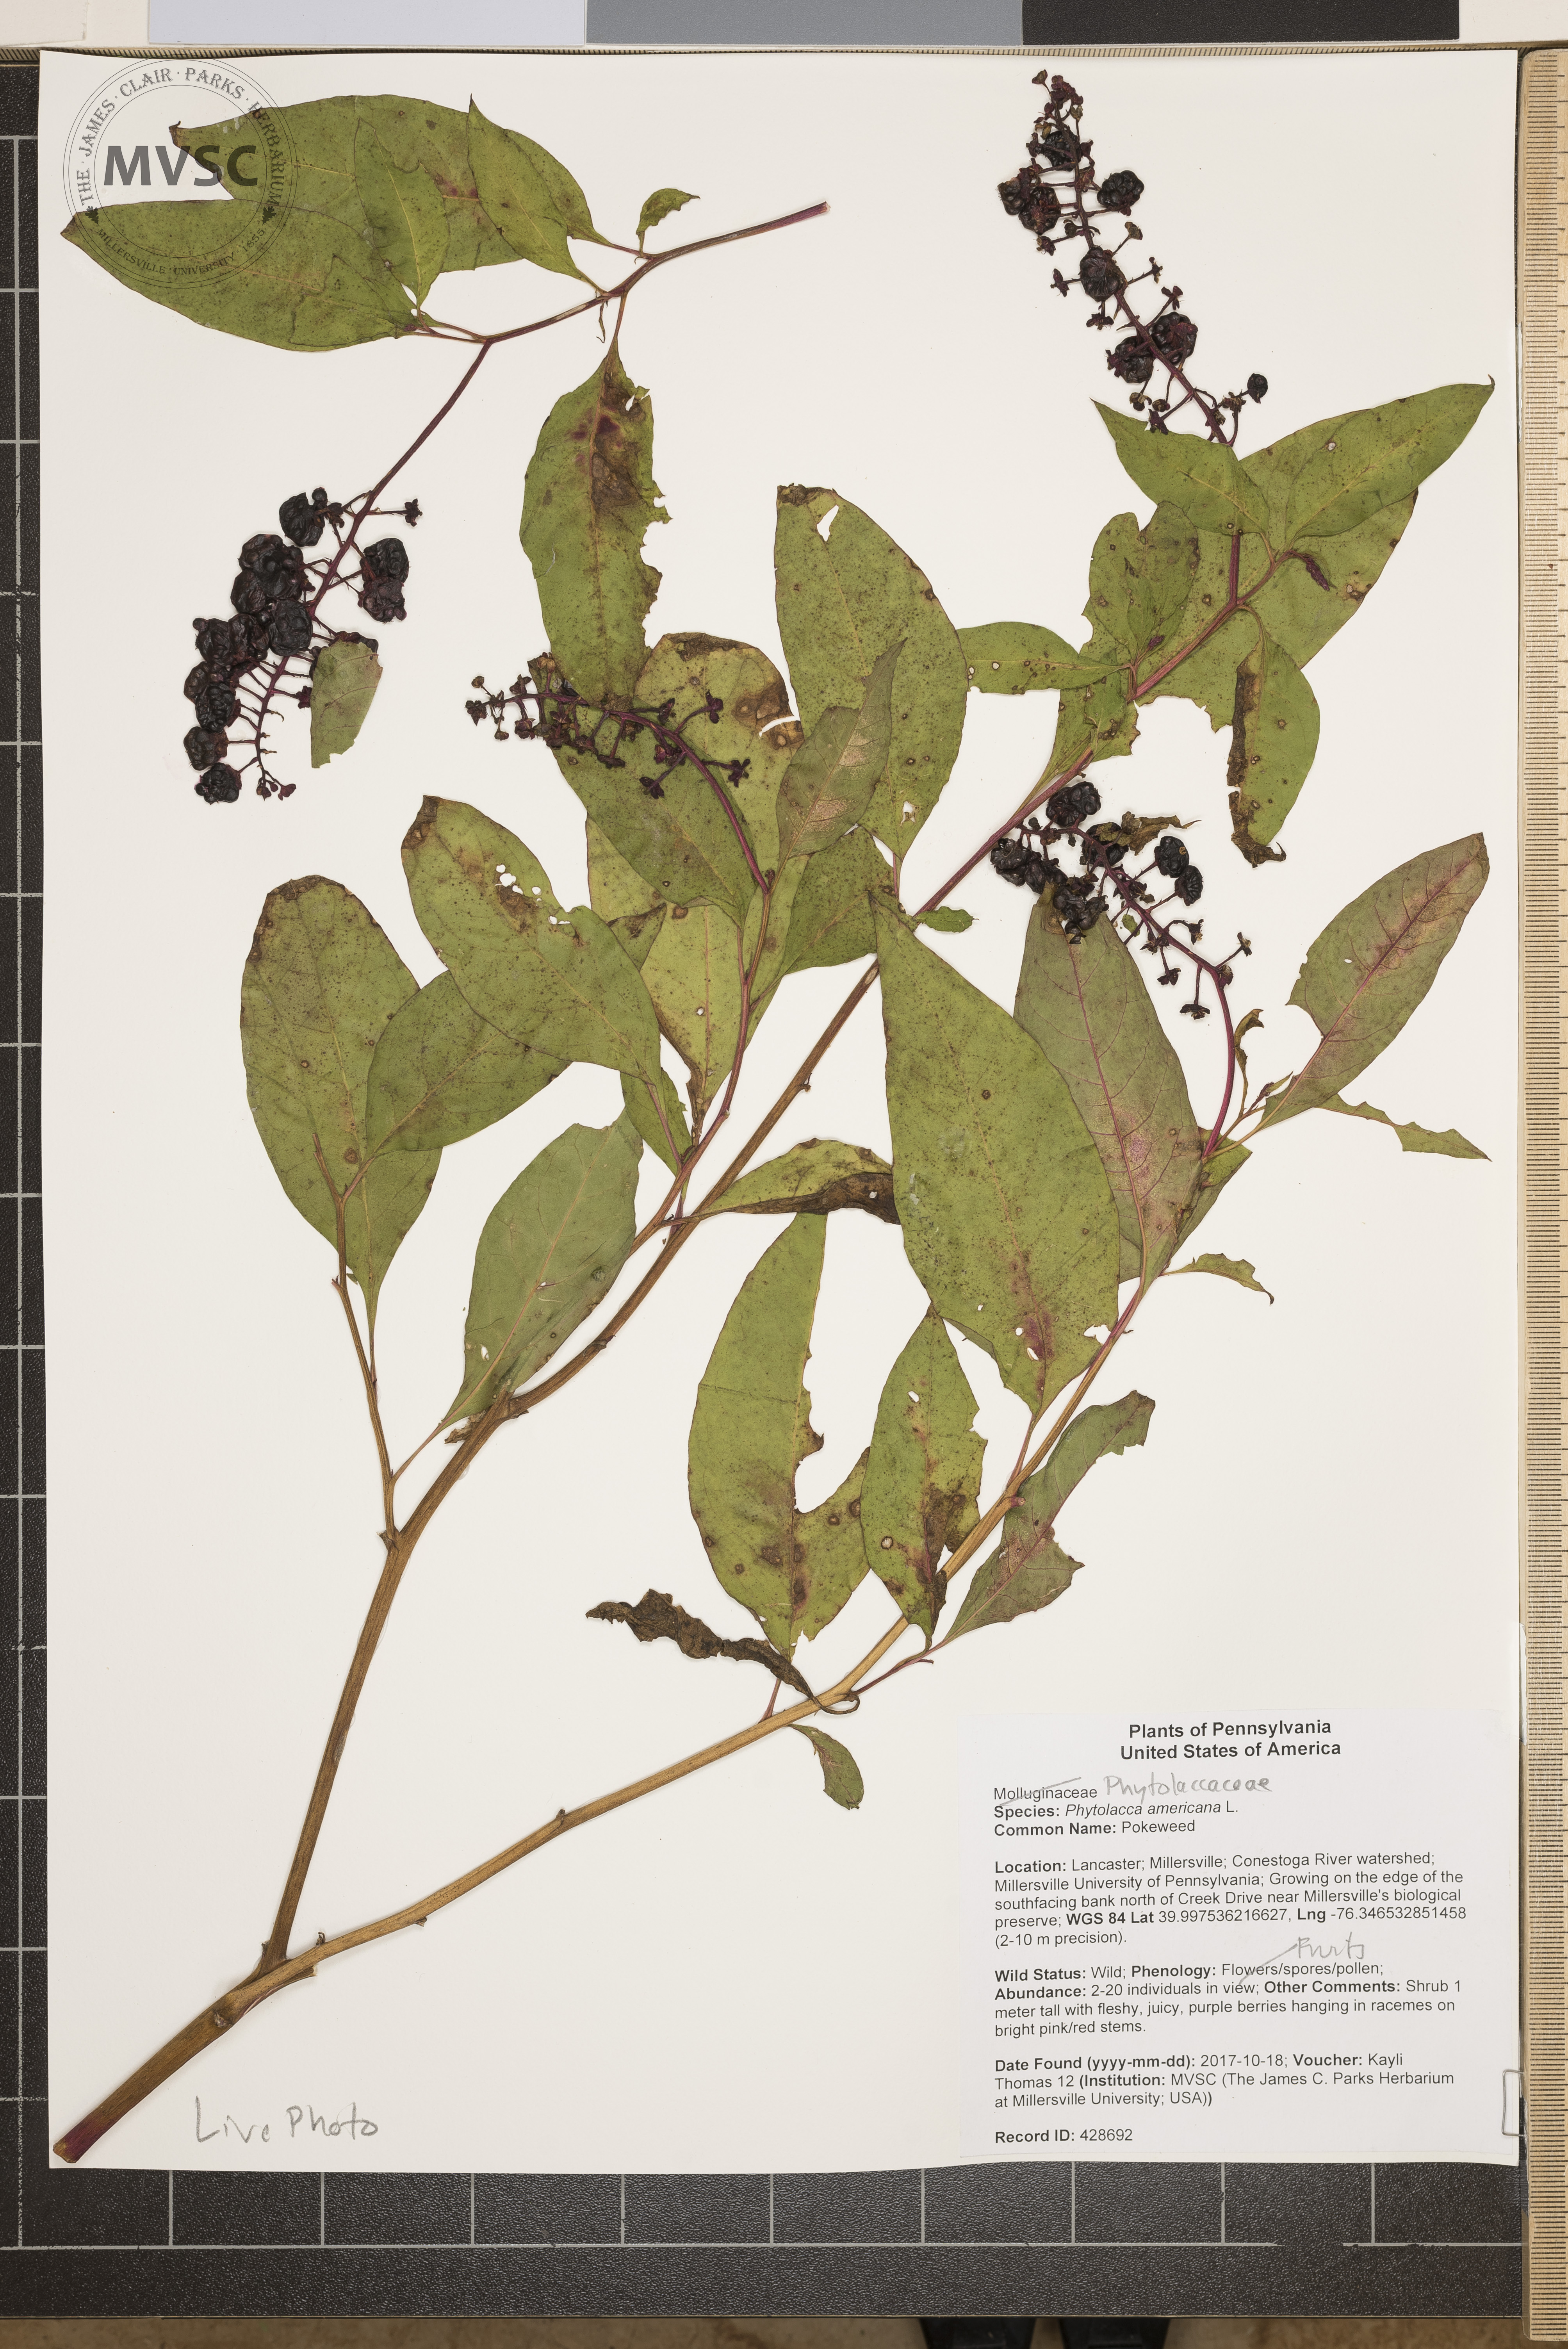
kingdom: Plantae
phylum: Tracheophyta
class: Magnoliopsida
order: Caryophyllales
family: Phytolaccaceae
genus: Phytolacca
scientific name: Phytolacca americana
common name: Pokeweed
